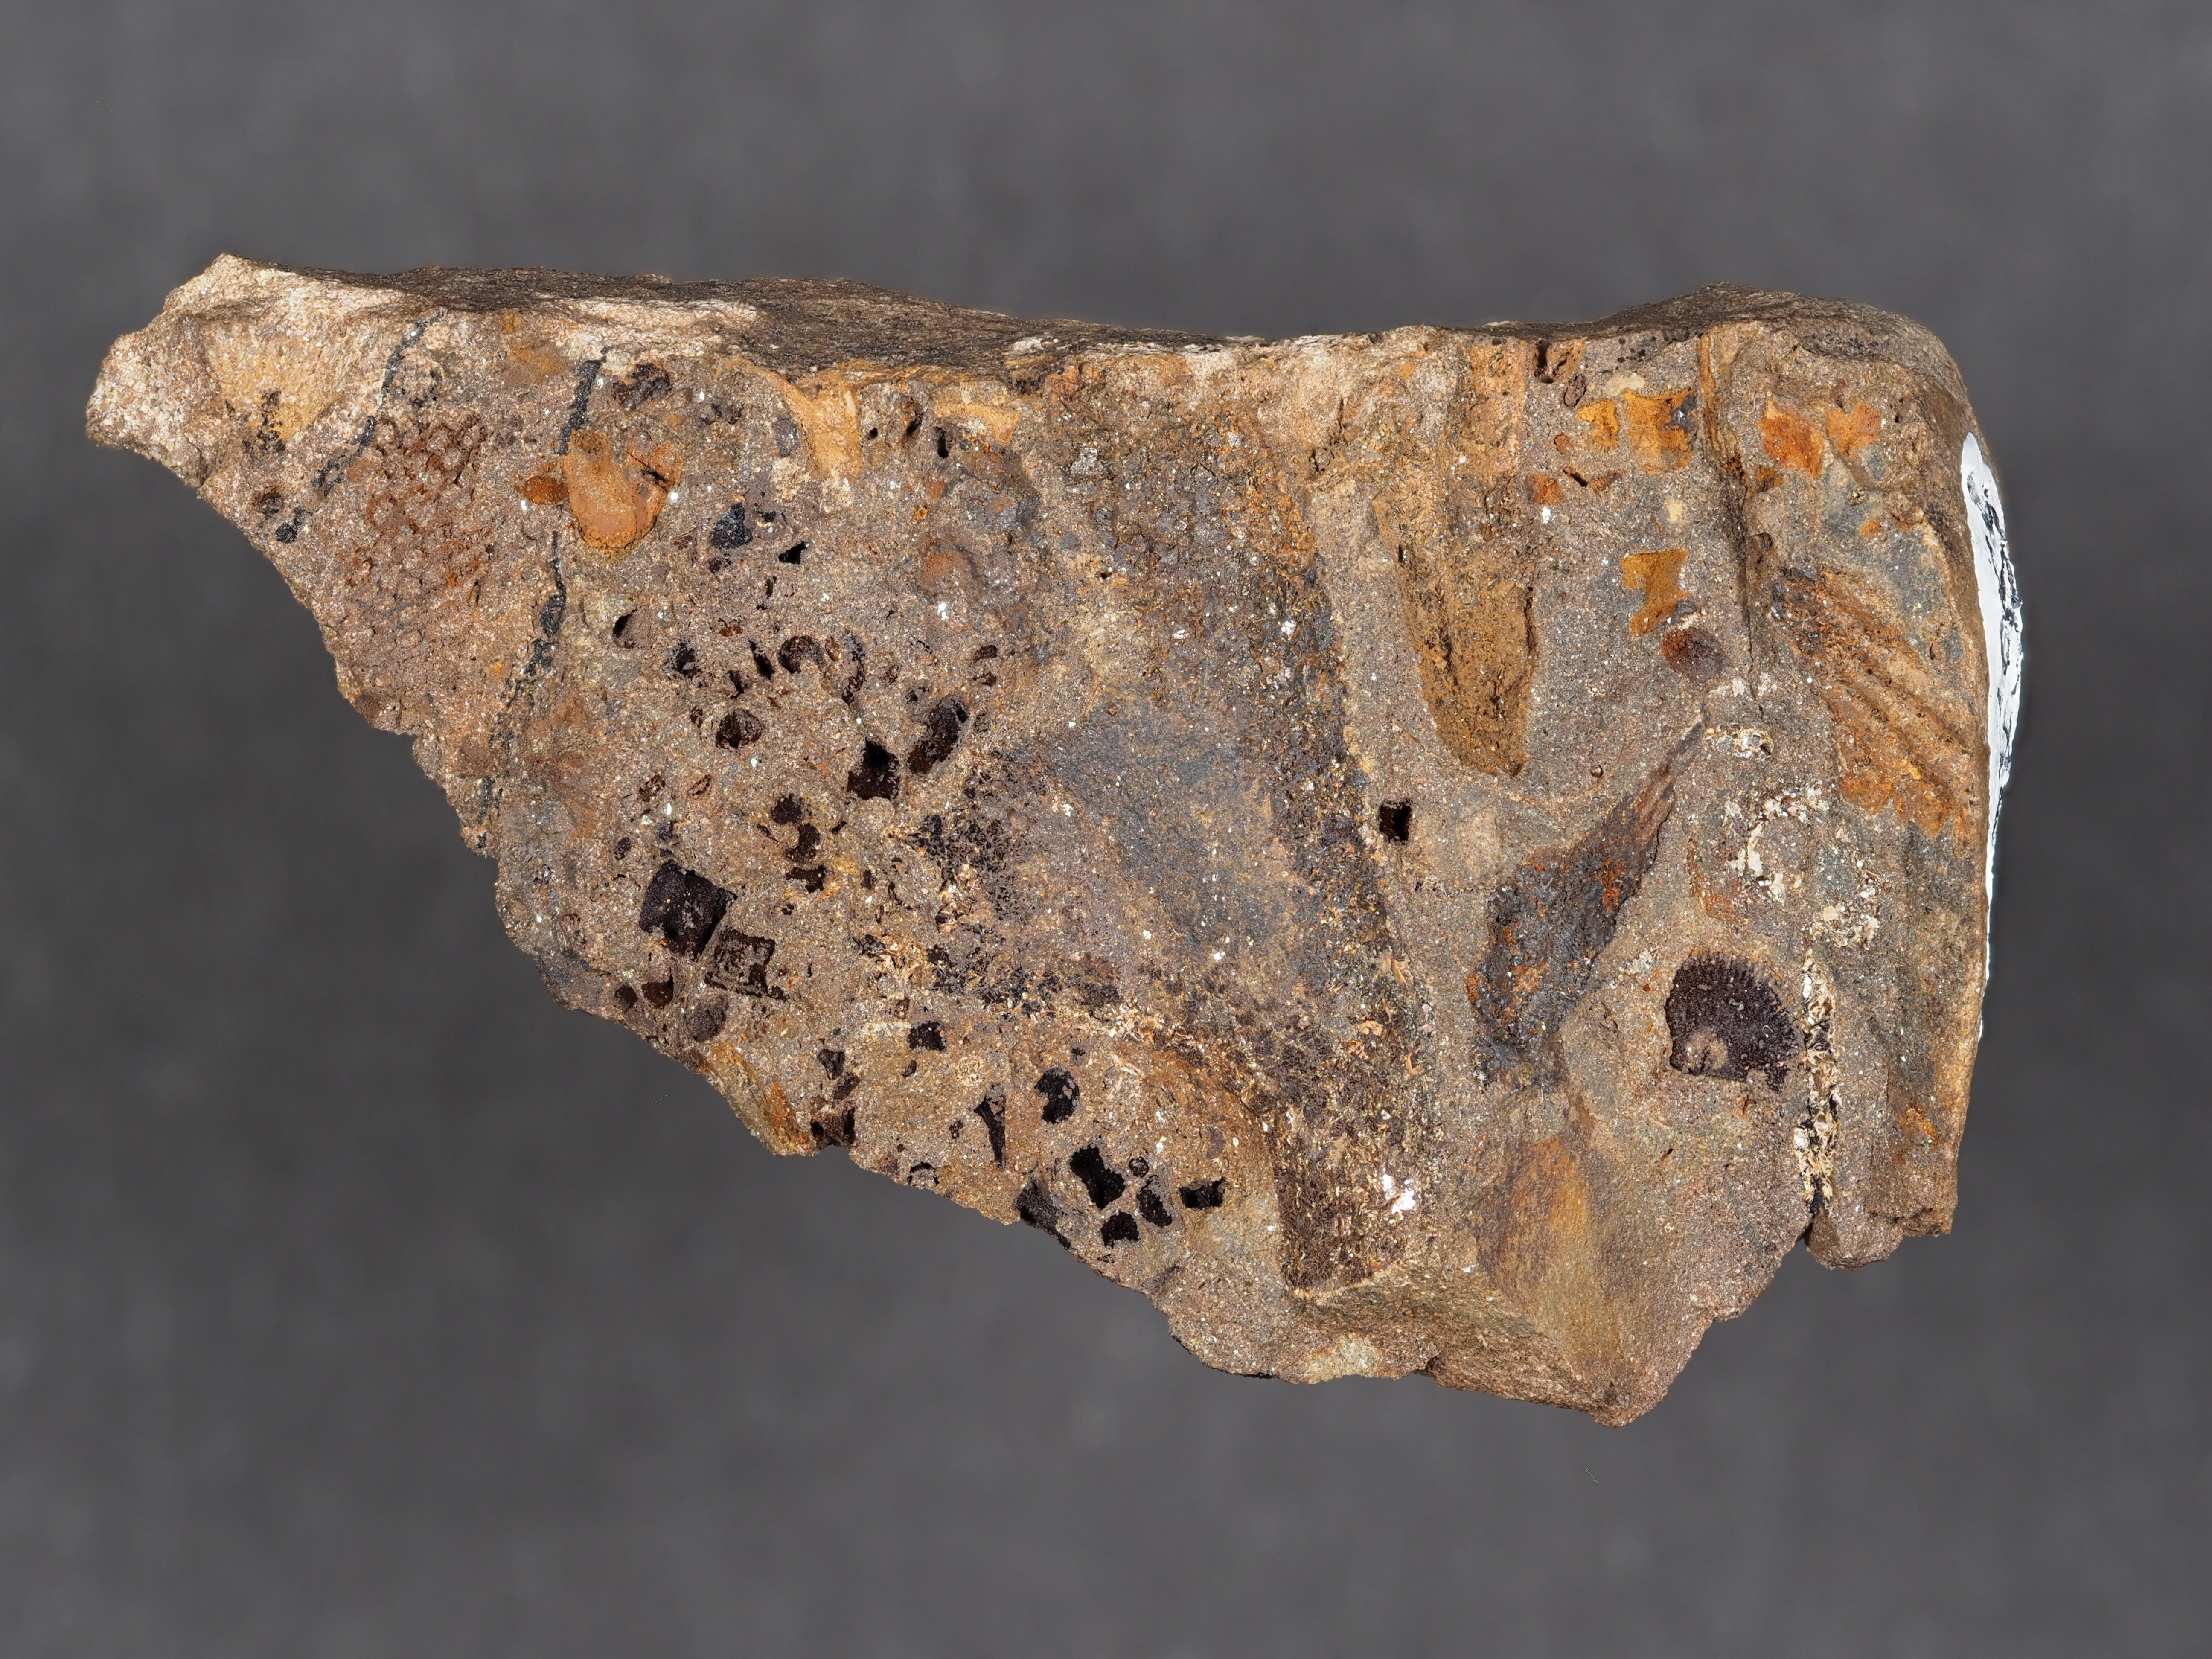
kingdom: Animalia
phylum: Echinodermata
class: Crinoidea
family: Melocrinitidae
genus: Ctenocrinus
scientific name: Ctenocrinus
